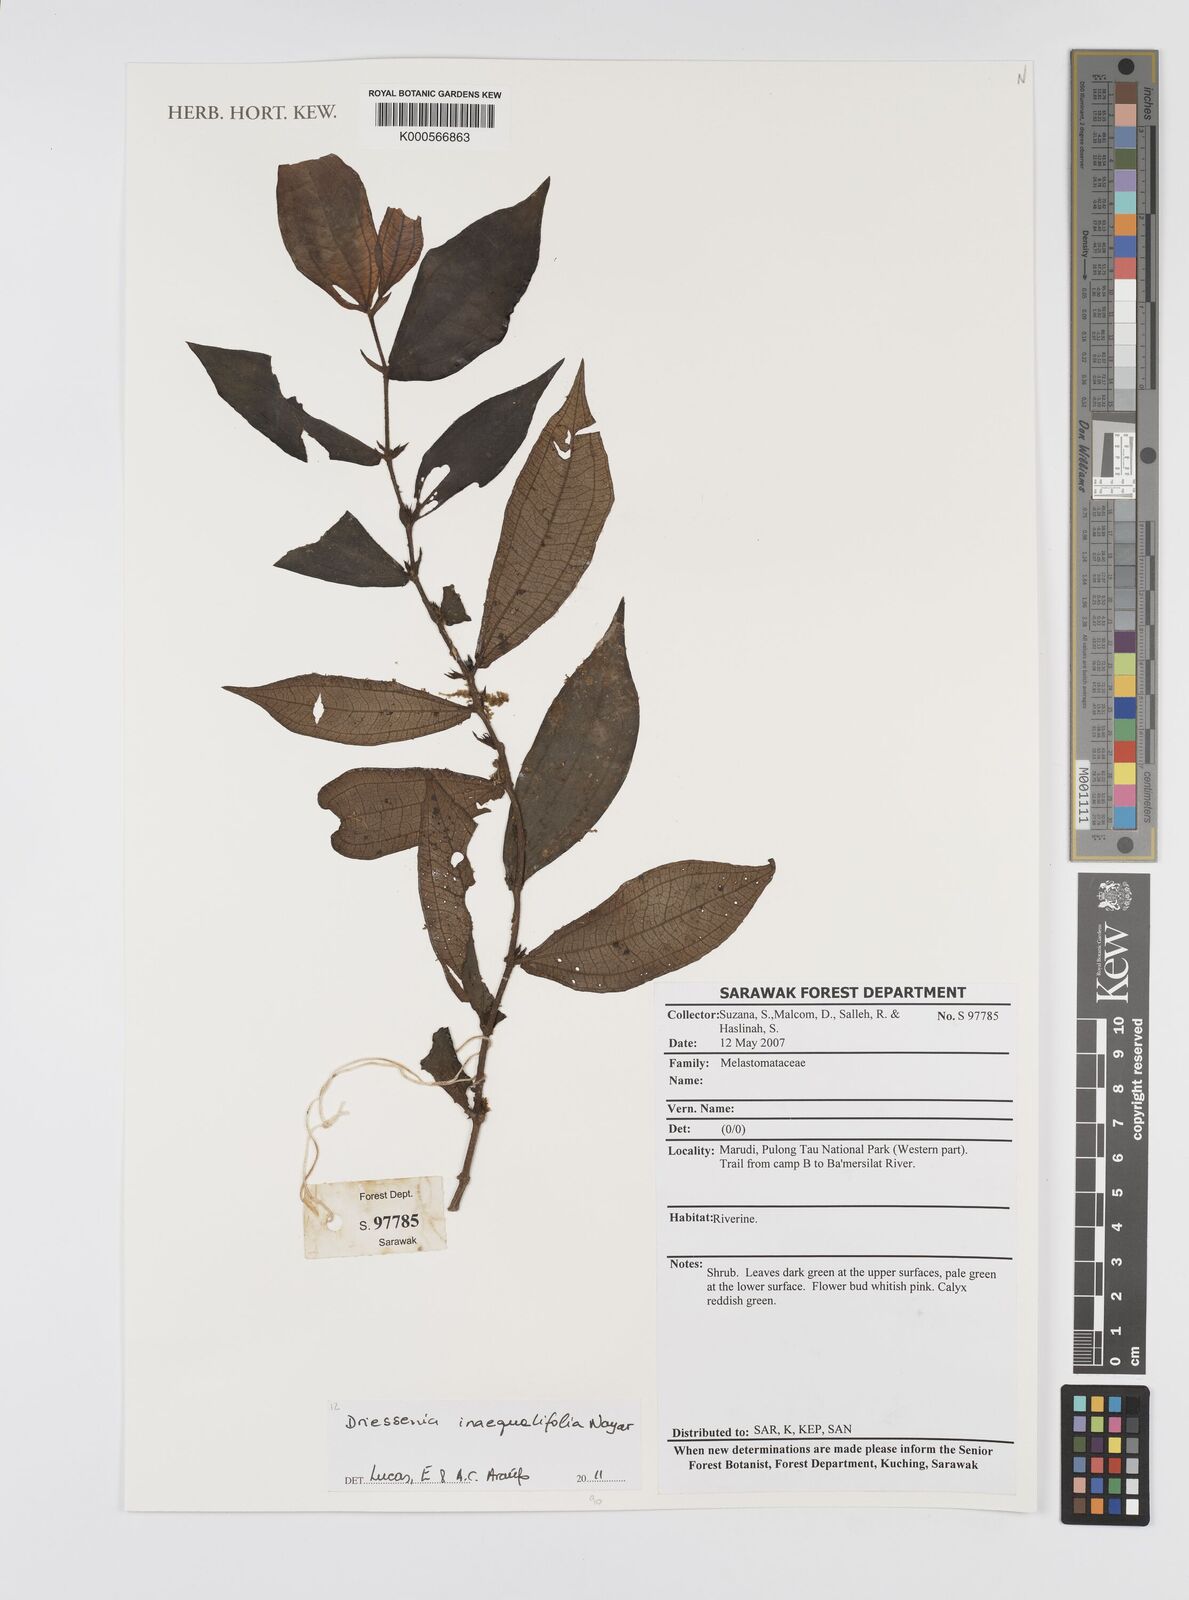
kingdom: Plantae
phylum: Tracheophyta
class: Magnoliopsida
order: Myrtales
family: Melastomataceae
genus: Driessenia
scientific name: Driessenia inaequalifolia
